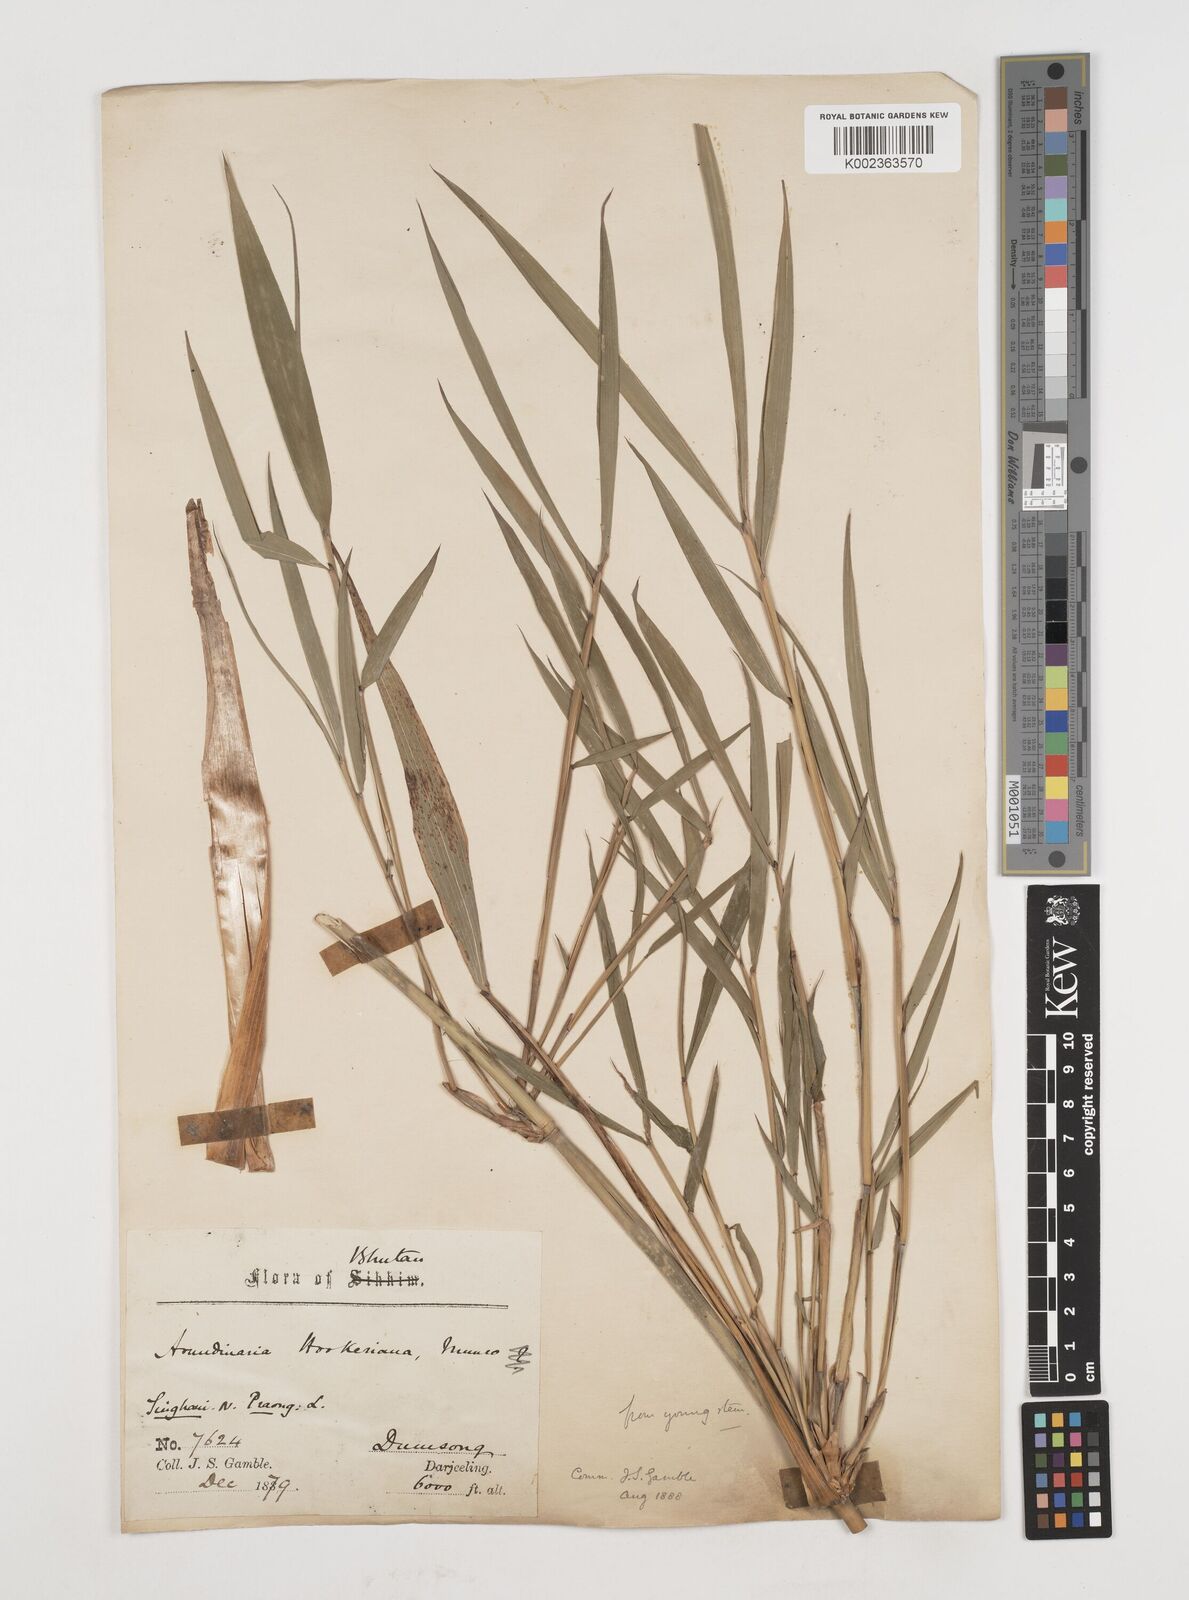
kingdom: Plantae
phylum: Tracheophyta
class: Liliopsida
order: Poales
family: Poaceae
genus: Himalayacalamus
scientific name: Himalayacalamus hookerianus
